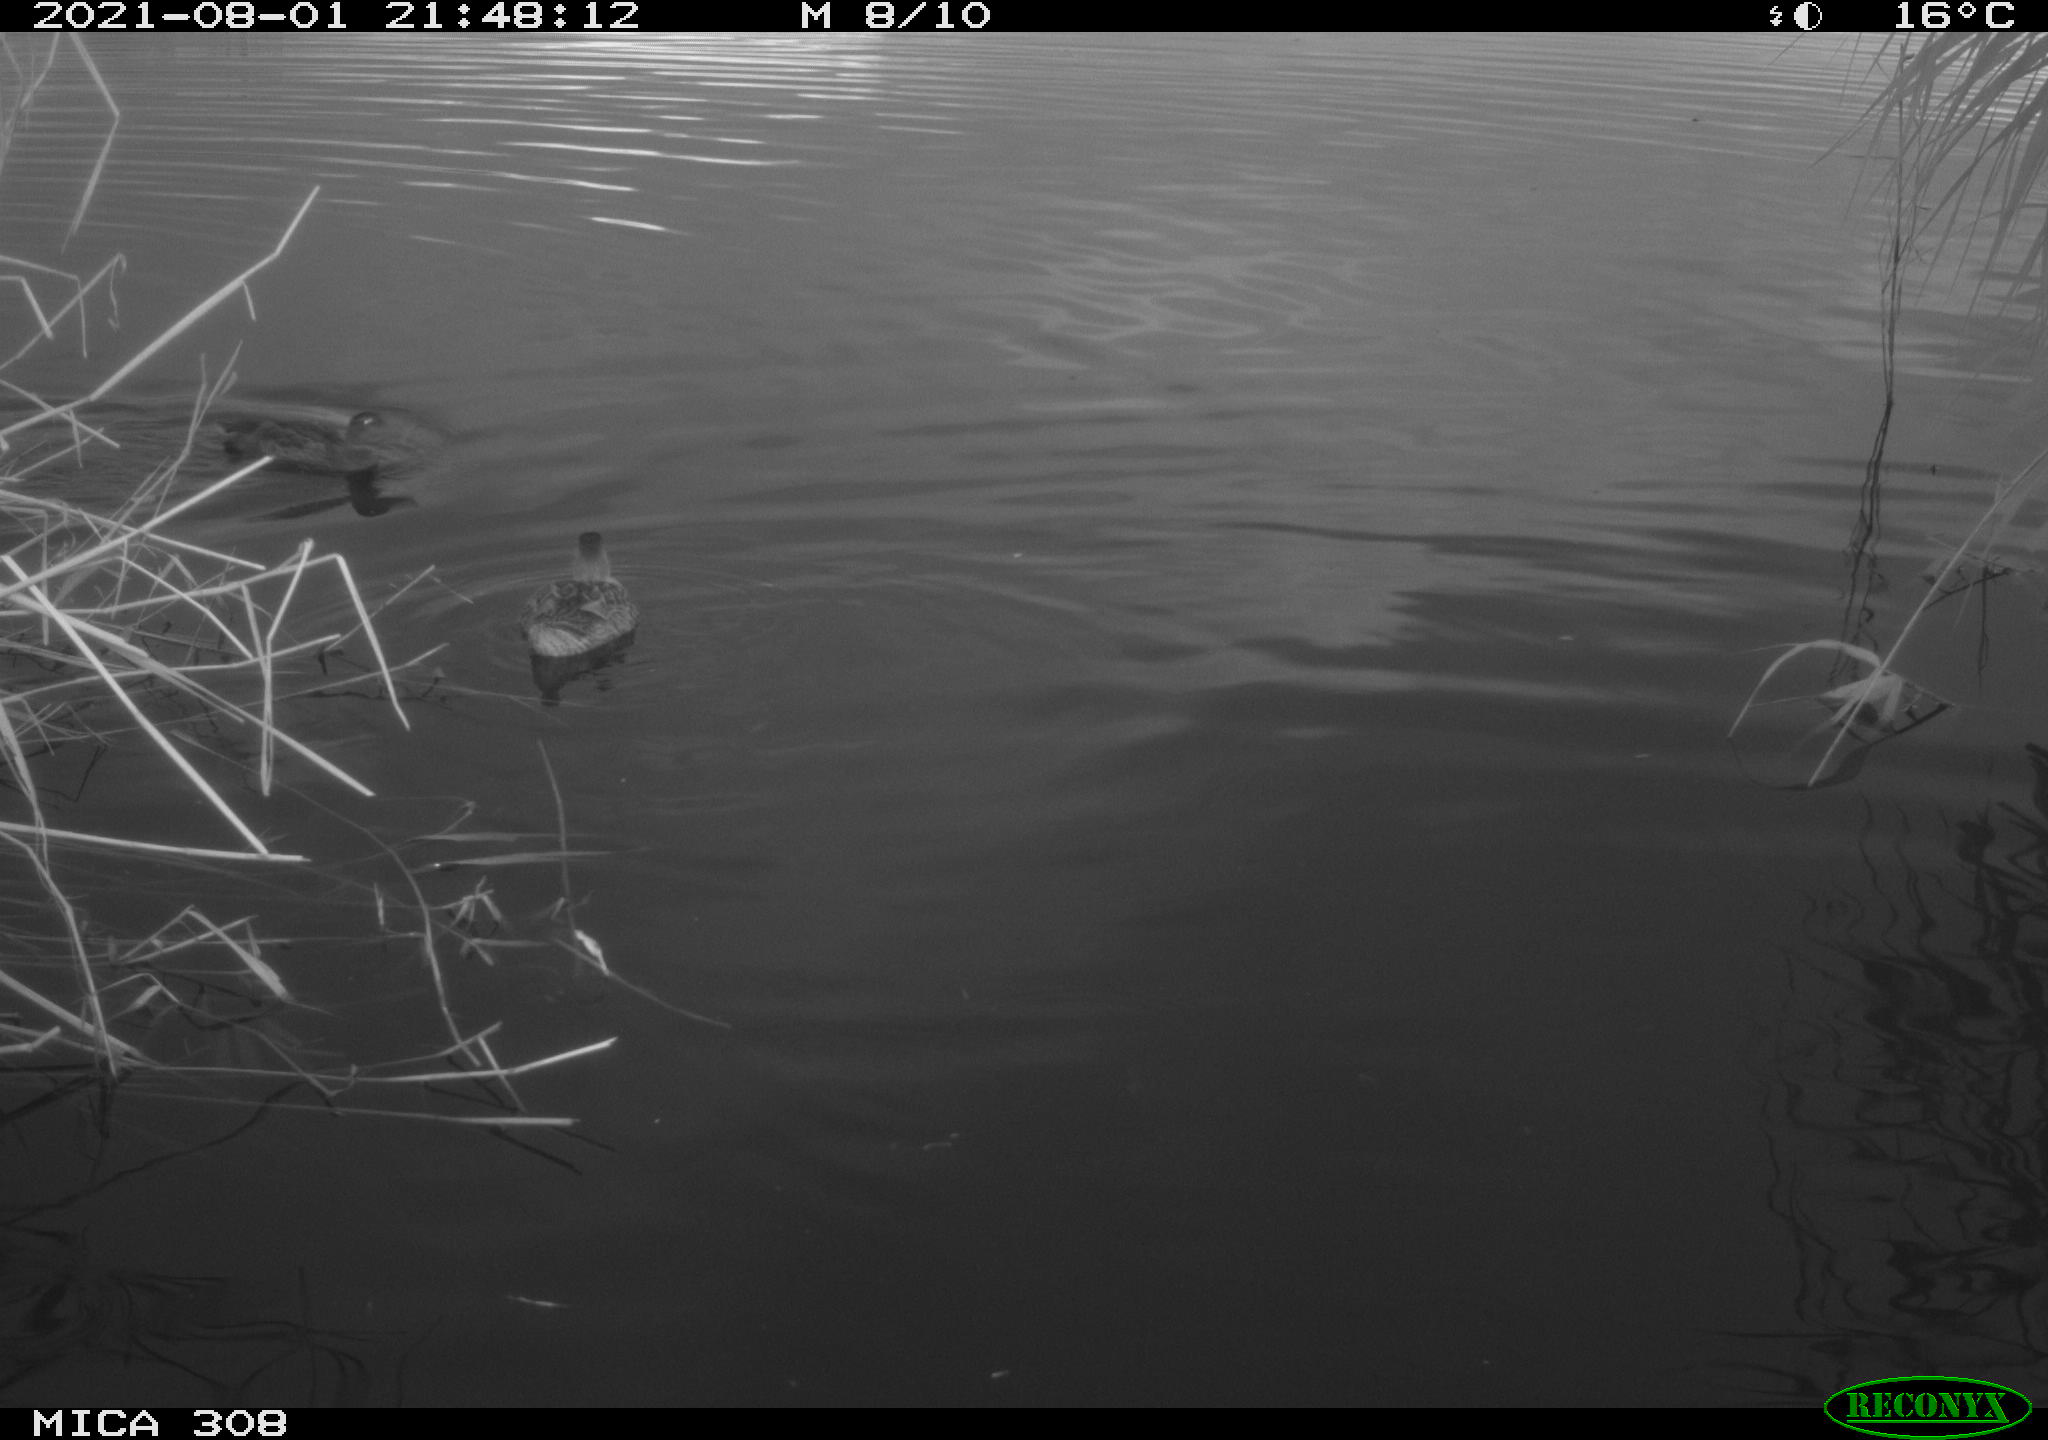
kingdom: Animalia
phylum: Chordata
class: Aves
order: Anseriformes
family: Anatidae
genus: Anas
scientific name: Anas platyrhynchos
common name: Mallard
